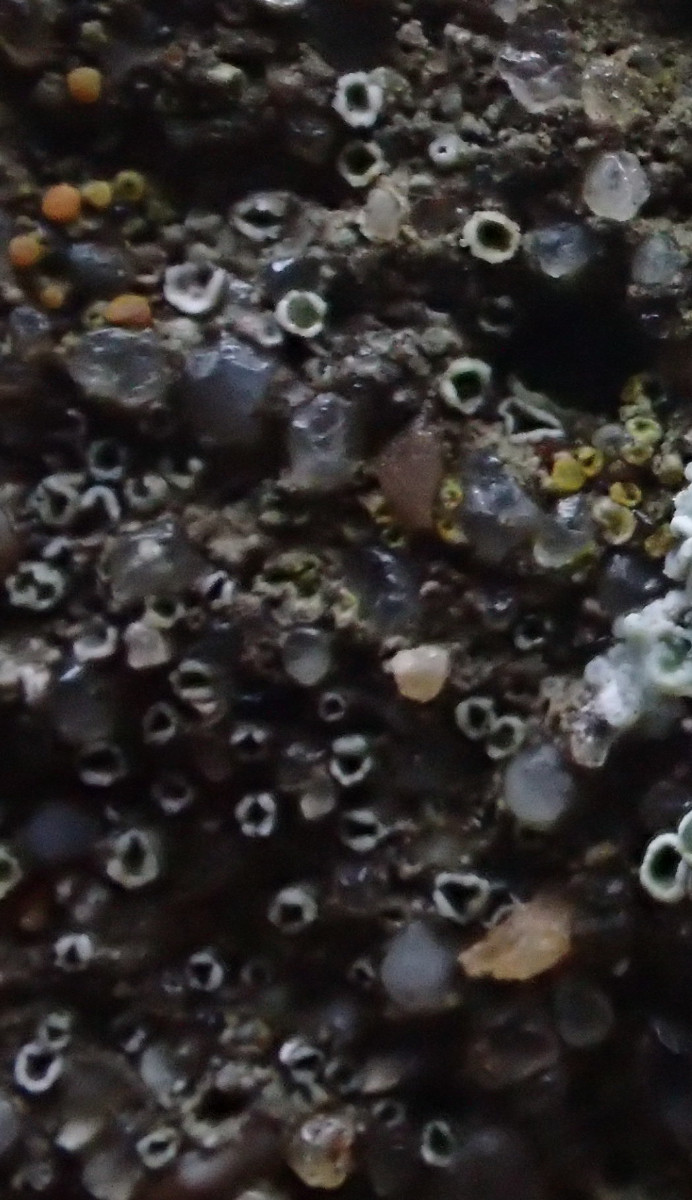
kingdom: Fungi
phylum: Ascomycota
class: Lecanoromycetes
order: Lecanorales
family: Lecanoraceae
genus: Polyozosia
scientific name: Polyozosia dispersa
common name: spredt kantskivelav
